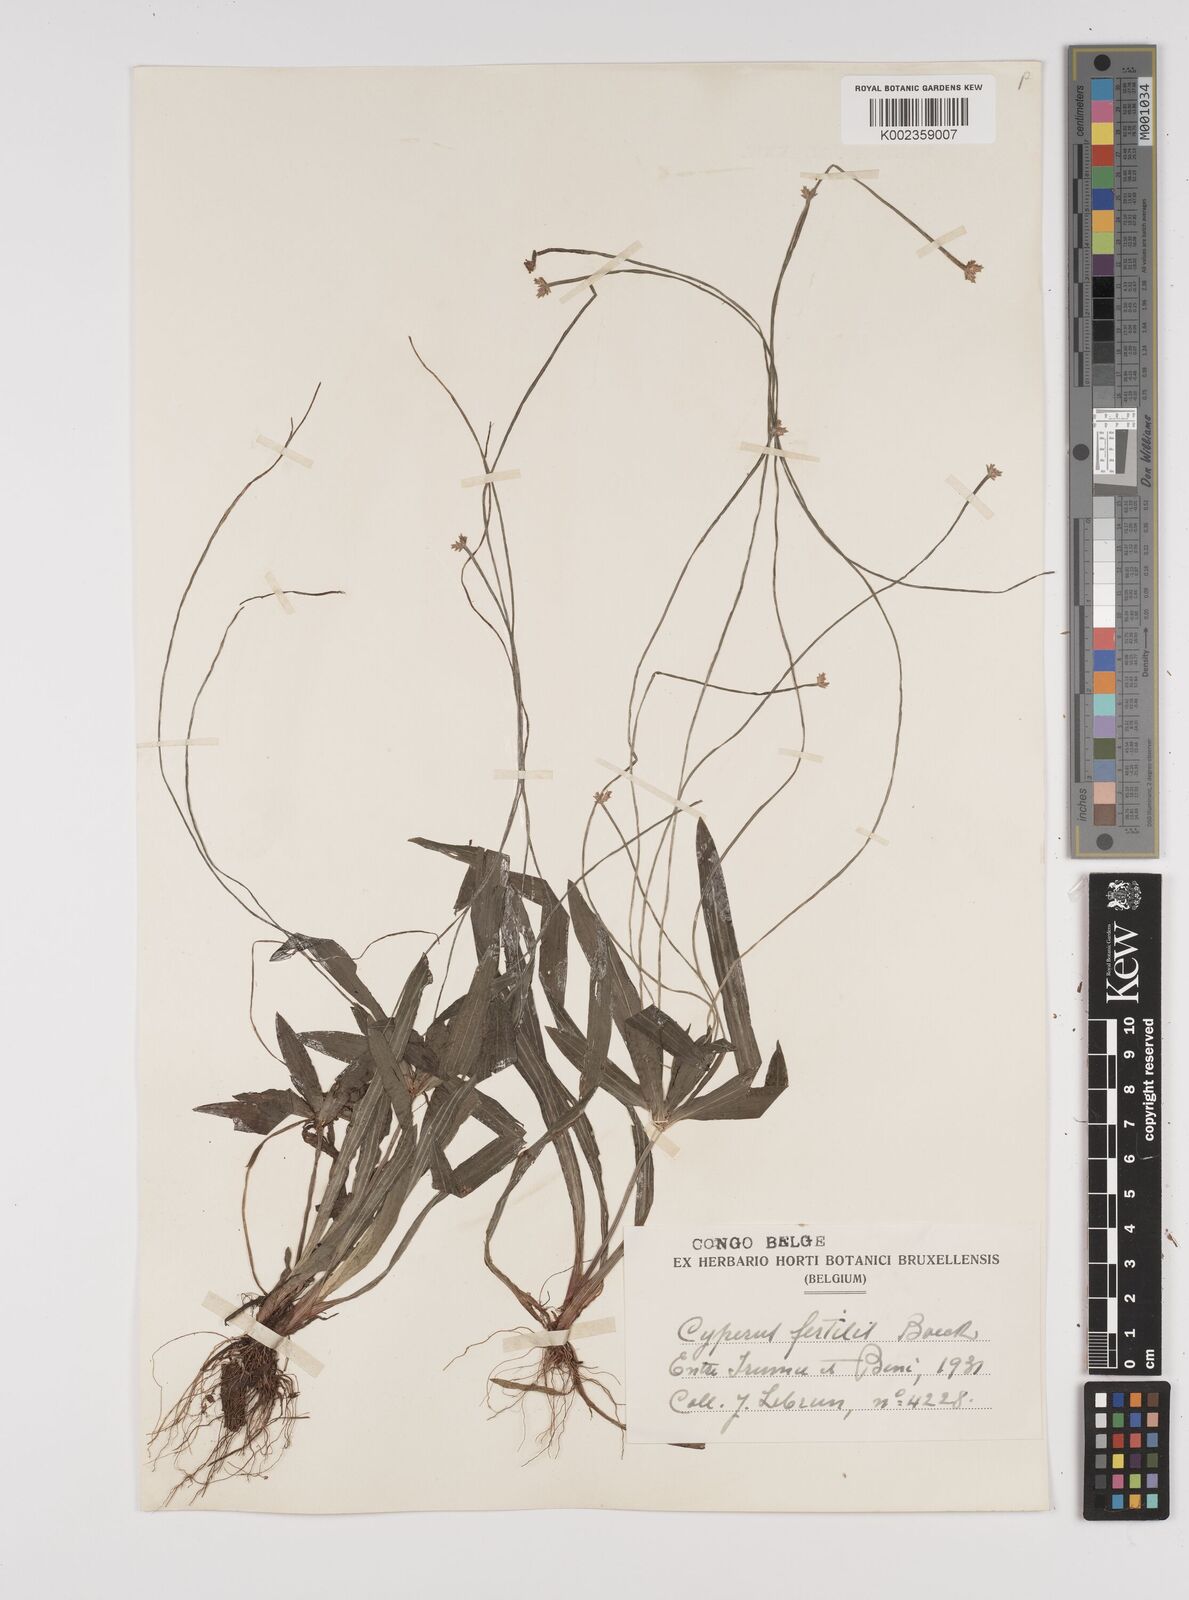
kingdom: Plantae
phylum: Tracheophyta
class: Liliopsida
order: Poales
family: Cyperaceae
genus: Cyperus
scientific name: Cyperus fertilis
